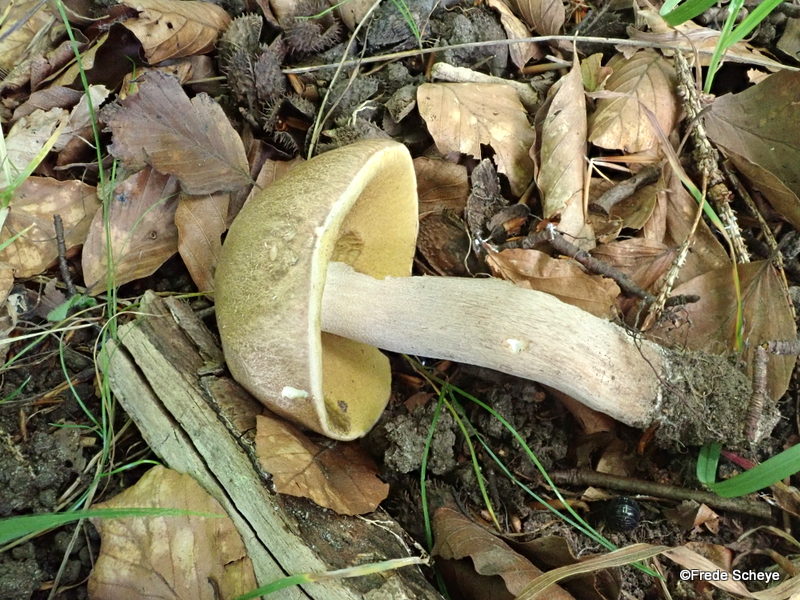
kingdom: Fungi
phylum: Basidiomycota
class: Agaricomycetes
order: Boletales
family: Boletaceae
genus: Boletus
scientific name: Boletus edulis
